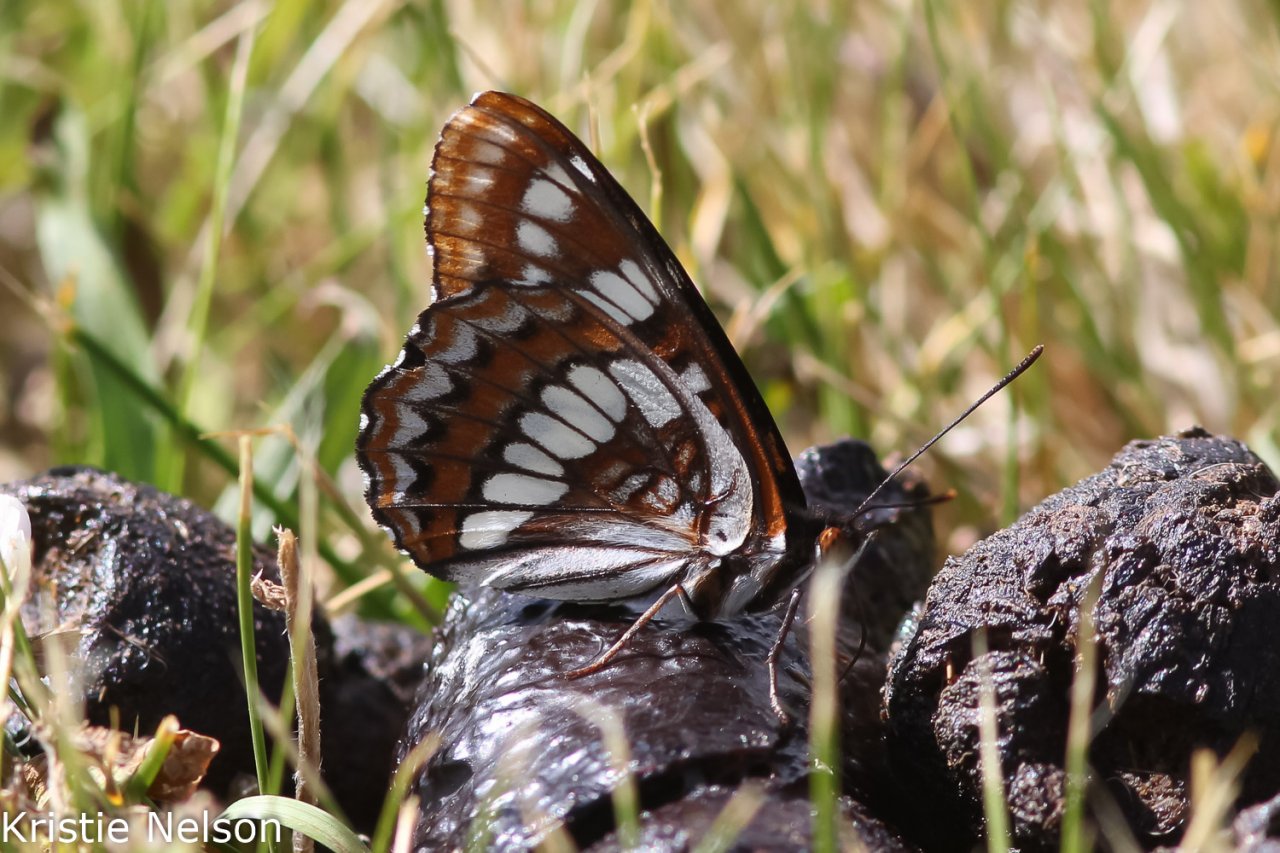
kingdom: Animalia
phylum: Arthropoda
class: Insecta
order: Lepidoptera
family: Nymphalidae
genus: Limenitis
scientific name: Limenitis lorquini
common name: Lorquin's Admiral
